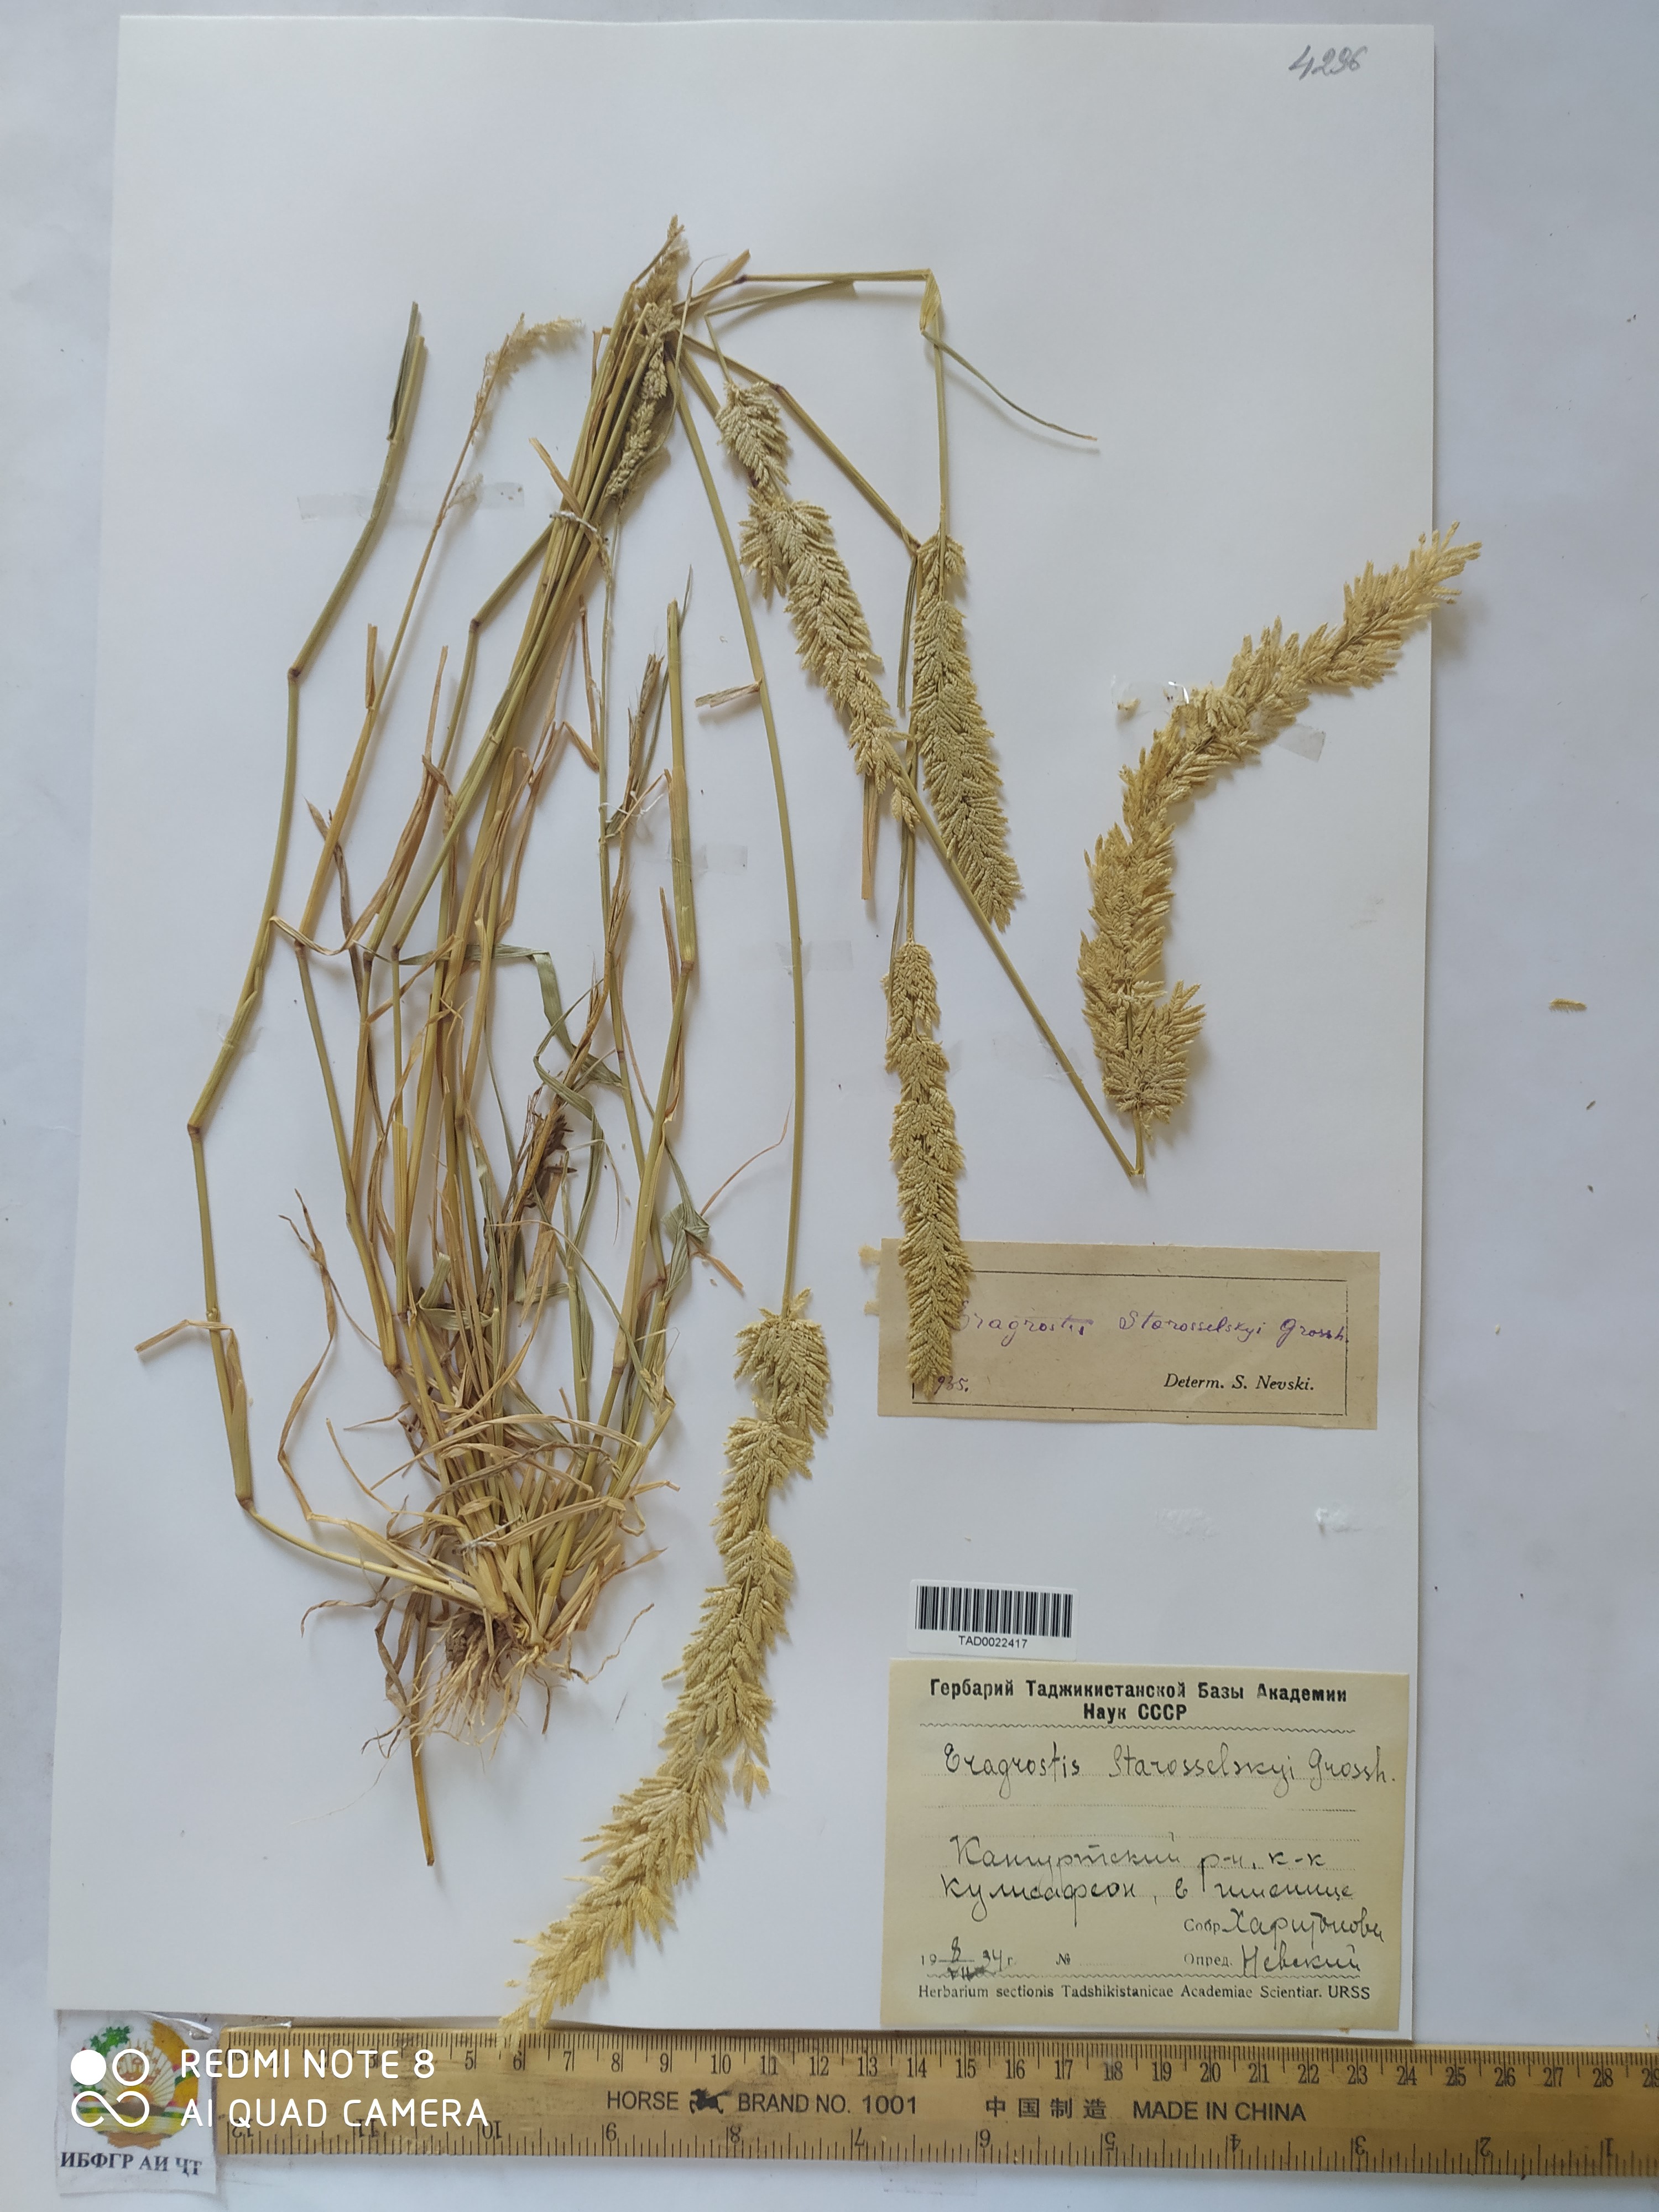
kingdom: Plantae
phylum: Tracheophyta
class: Liliopsida
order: Poales
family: Poaceae
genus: Eragrostis
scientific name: Eragrostis cilianensis
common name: Stinkgrass
